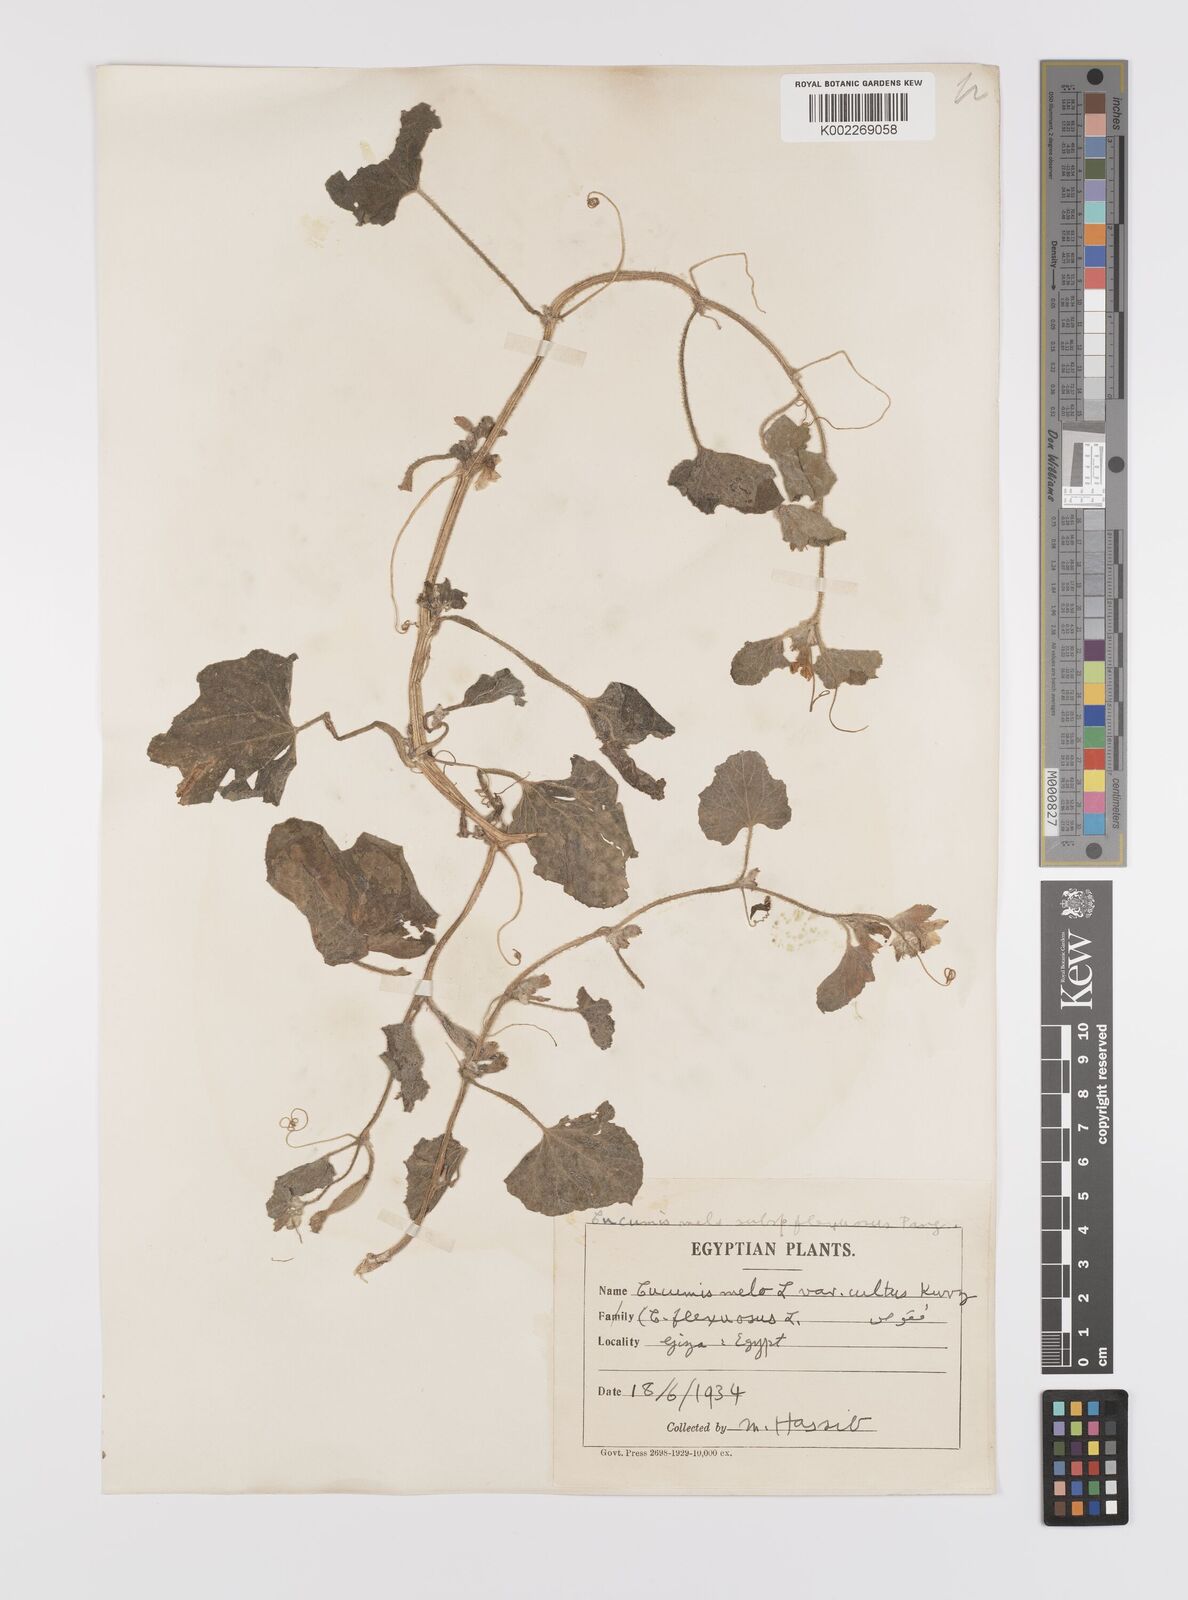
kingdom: Plantae
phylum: Tracheophyta
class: Magnoliopsida
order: Cucurbitales
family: Cucurbitaceae
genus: Cucumis
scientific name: Cucumis melo
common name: Melon
